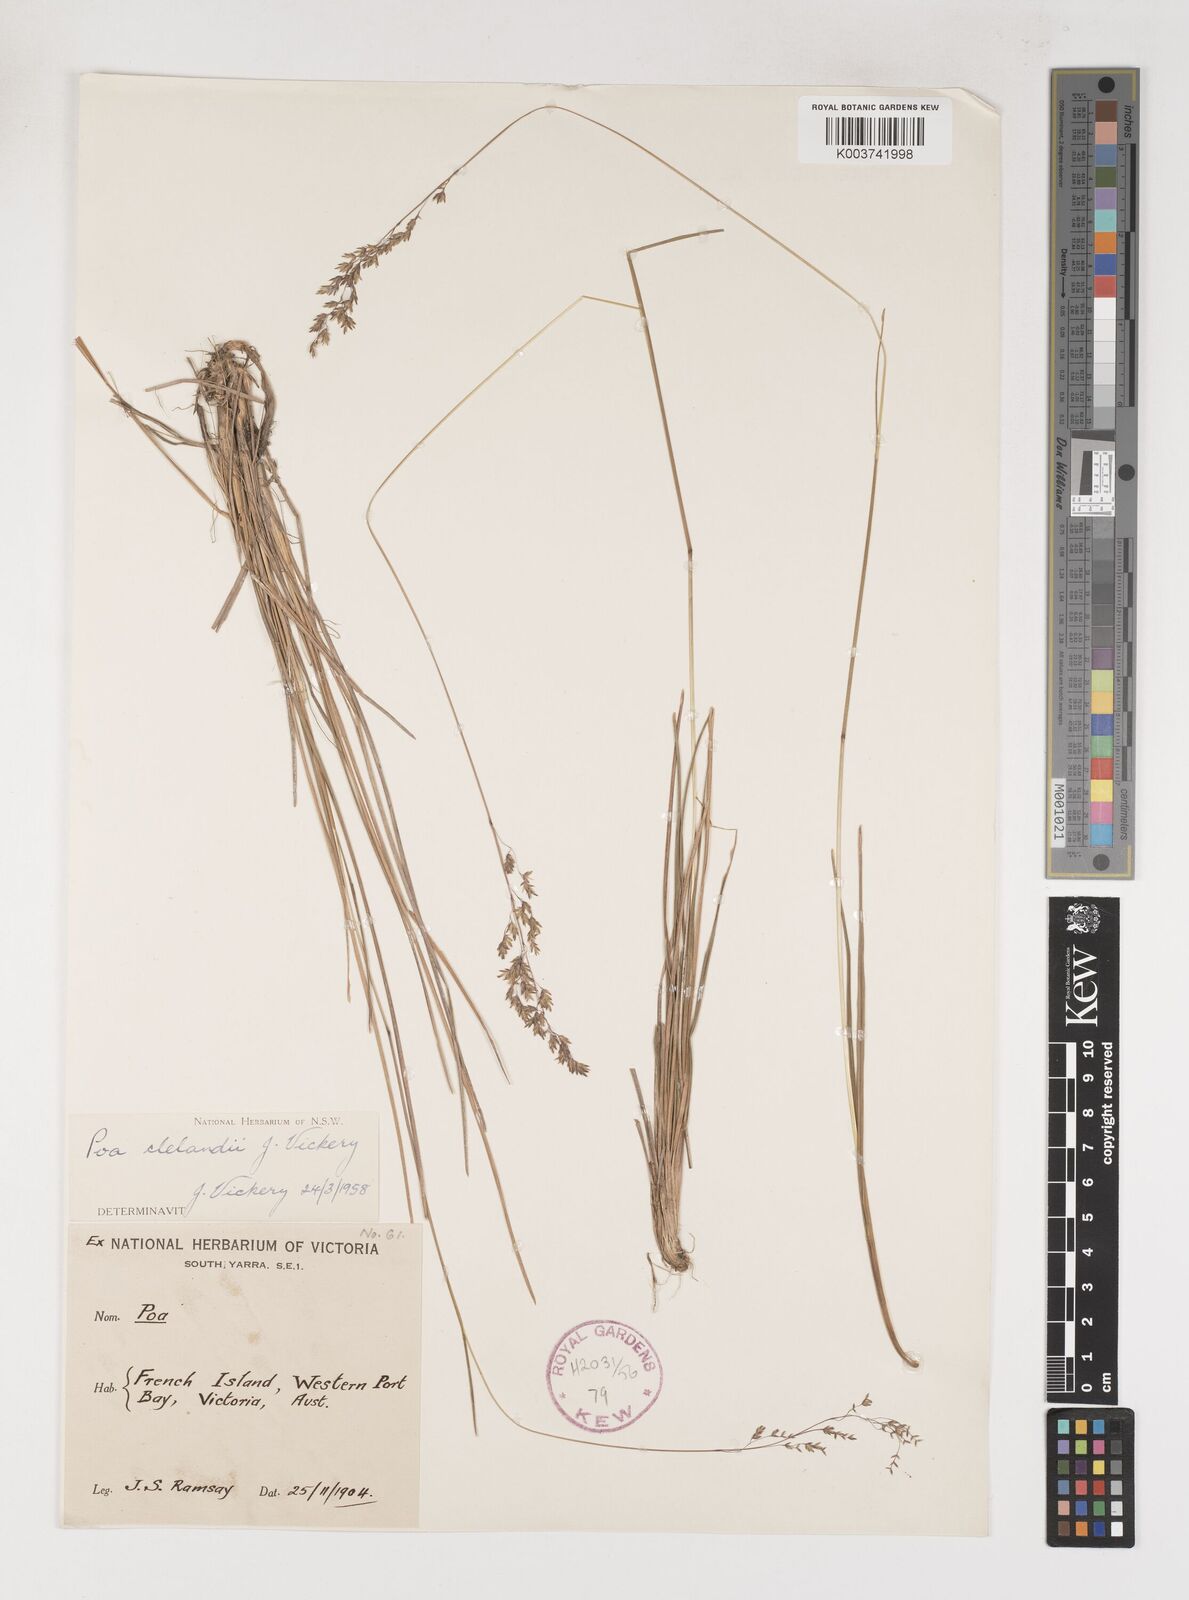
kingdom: Plantae
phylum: Tracheophyta
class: Liliopsida
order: Poales
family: Poaceae
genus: Poa
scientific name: Poa clelandii
